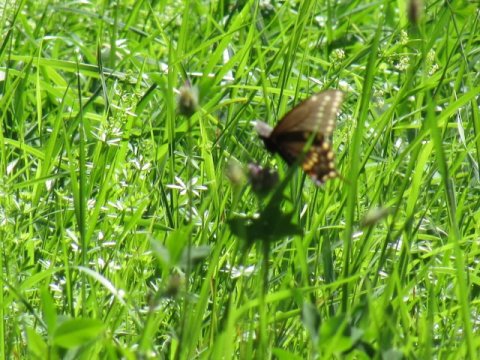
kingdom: Animalia
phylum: Arthropoda
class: Insecta
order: Lepidoptera
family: Papilionidae
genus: Papilio
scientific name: Papilio polyxenes
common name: Black Swallowtail
